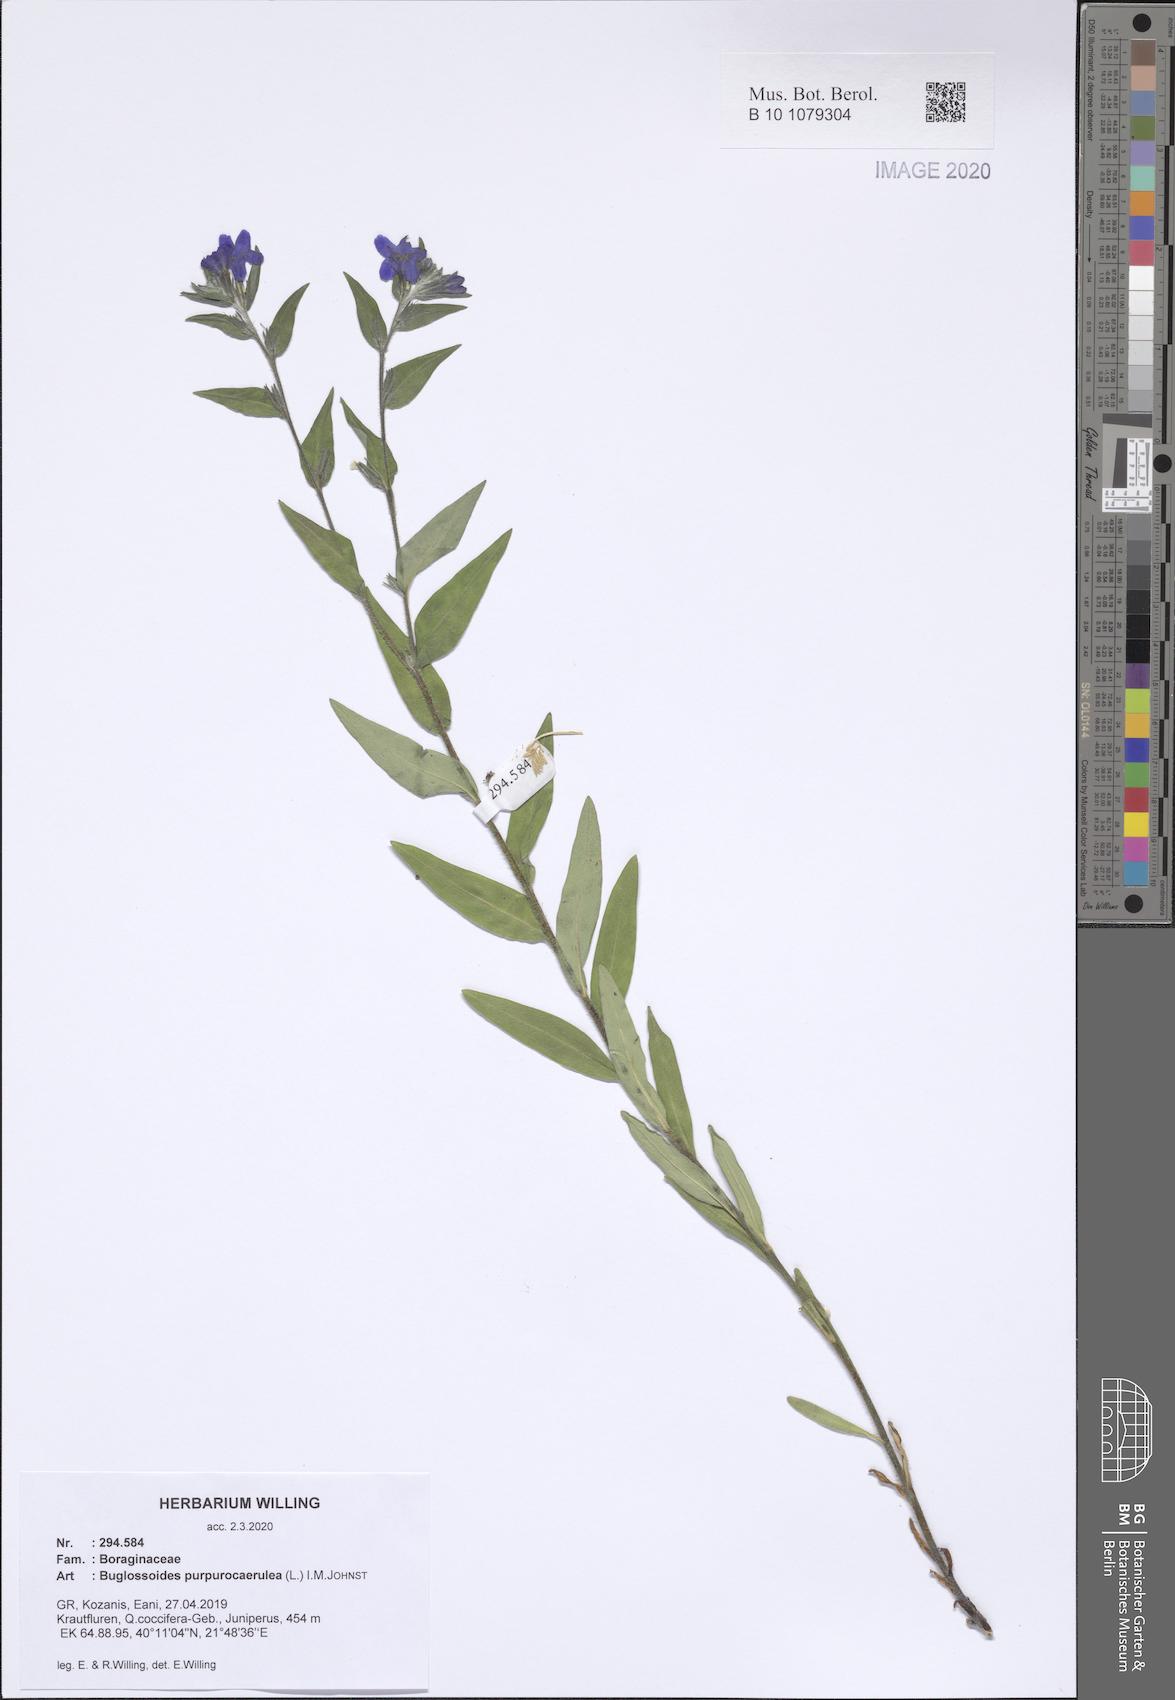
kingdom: Plantae
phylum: Tracheophyta
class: Magnoliopsida
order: Boraginales
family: Boraginaceae
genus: Aegonychon
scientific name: Aegonychon purpurocaeruleum
